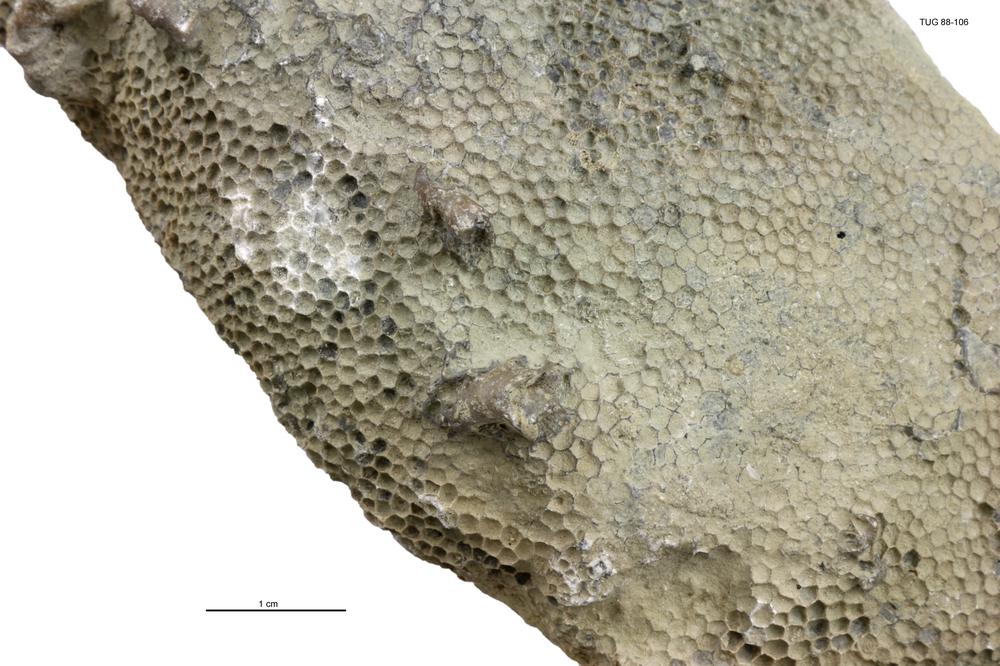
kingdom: Animalia
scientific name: Animalia
